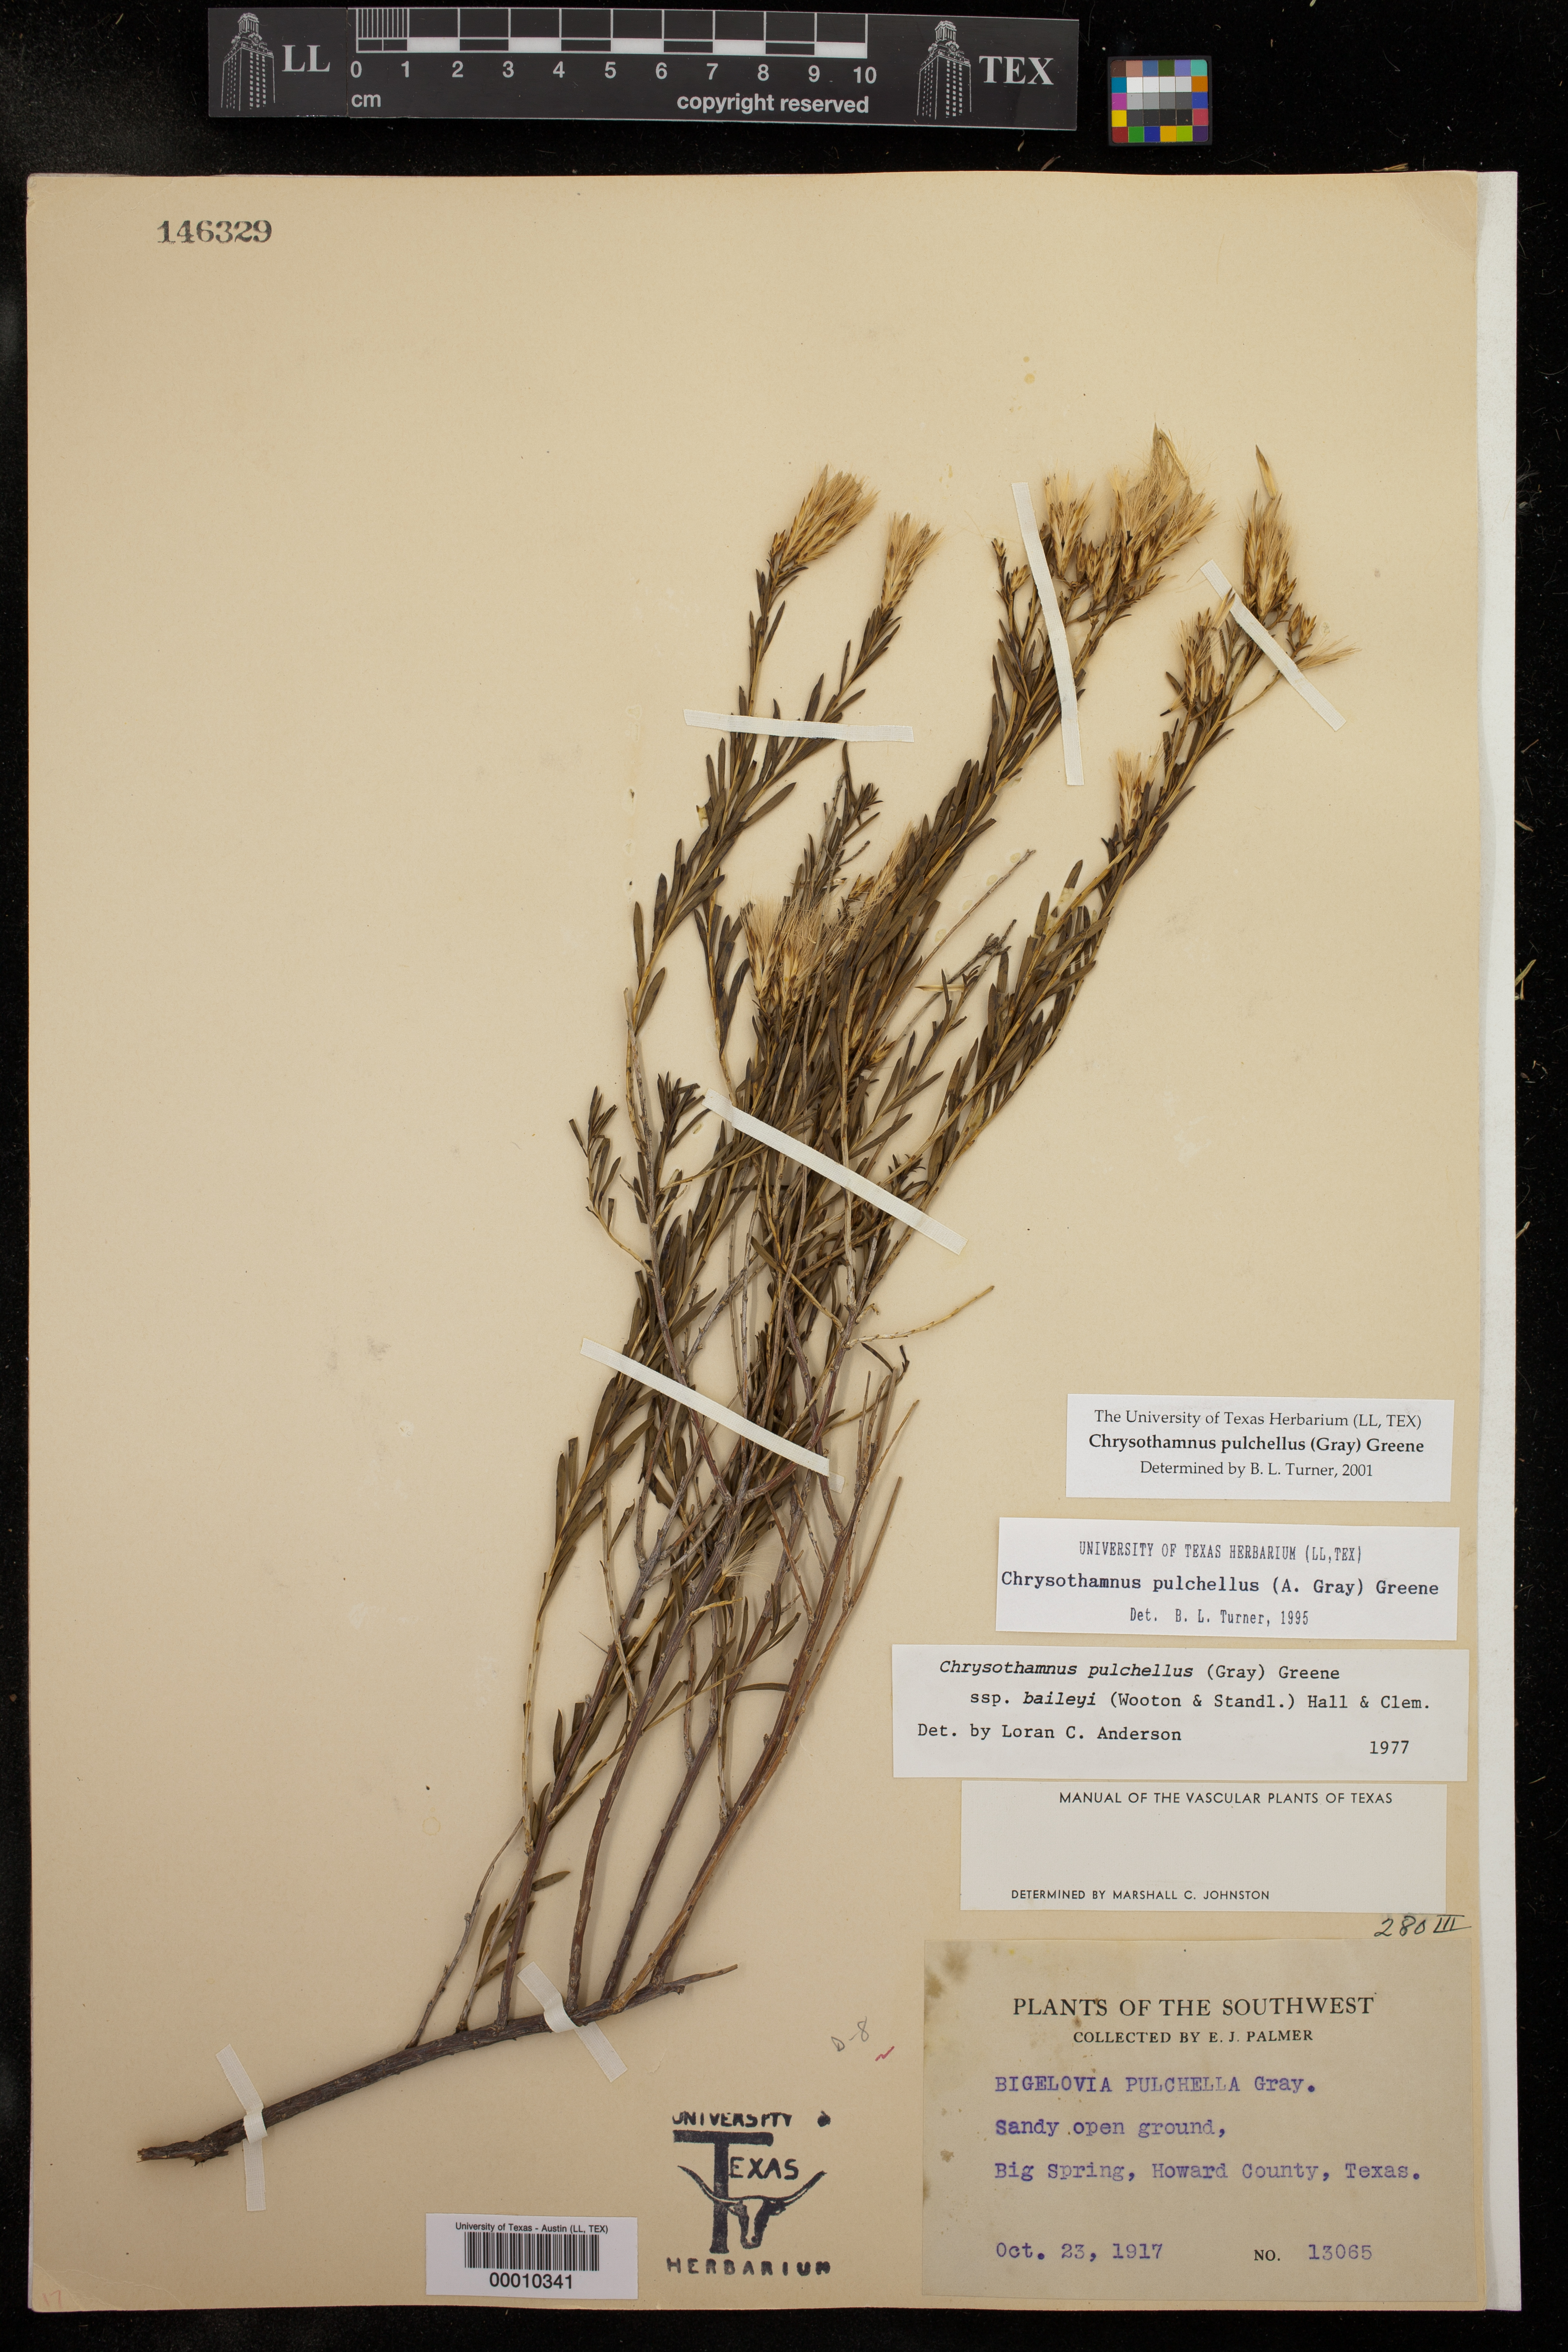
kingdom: Plantae
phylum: Tracheophyta
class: Magnoliopsida
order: Asterales
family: Asteraceae
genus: Lorandersonia
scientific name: Lorandersonia pulchella
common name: Southwestern rabbitbrush
